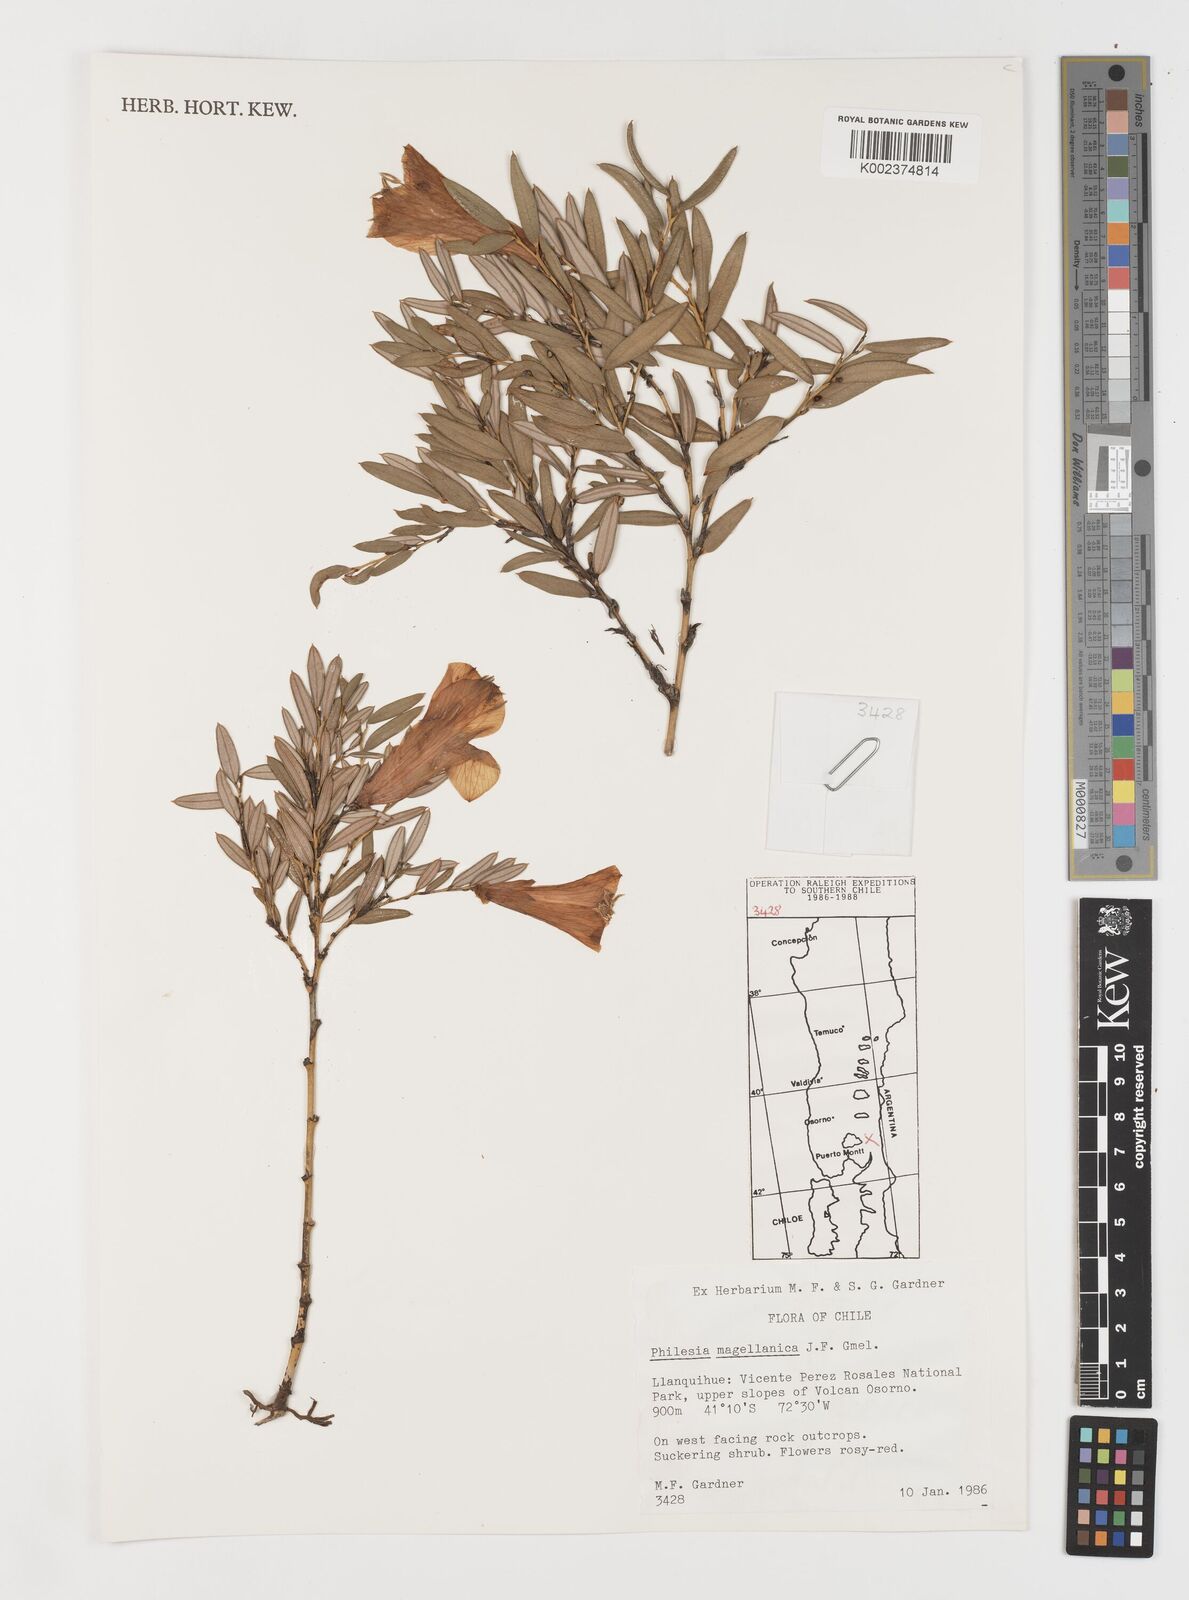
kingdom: Plantae
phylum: Tracheophyta
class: Liliopsida
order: Liliales
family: Philesiaceae
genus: Philesia
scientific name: Philesia magellanica
